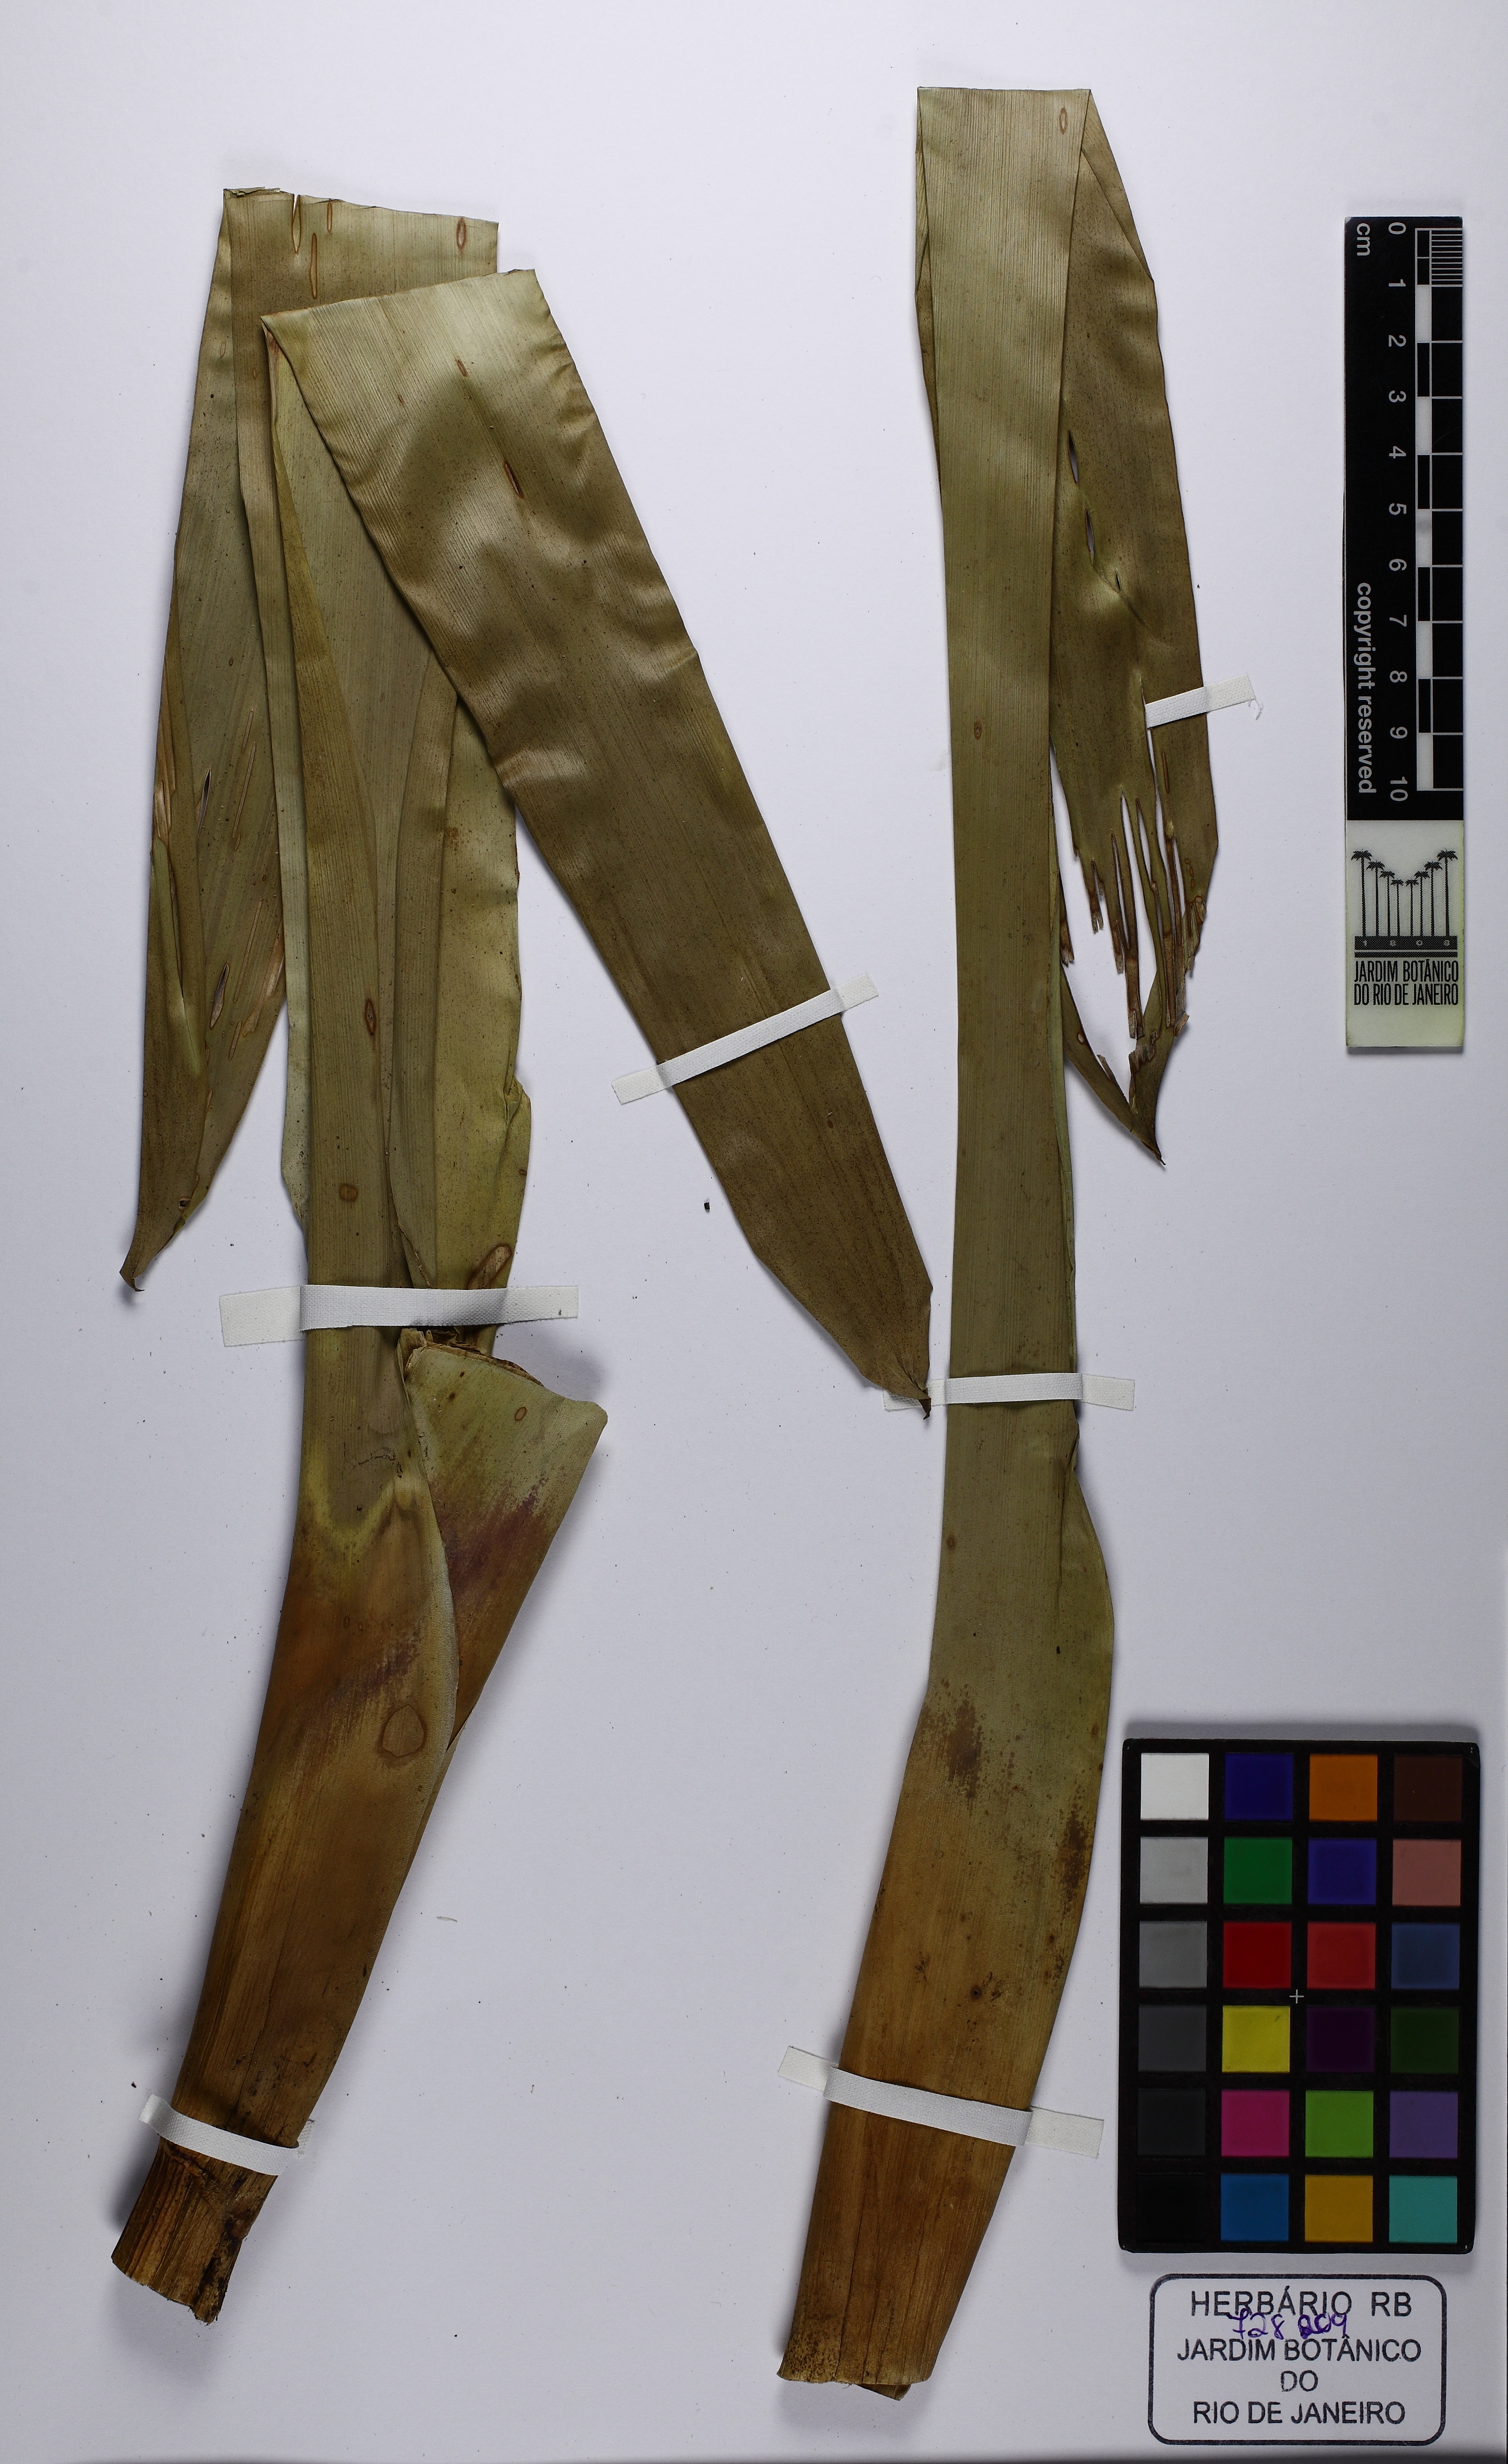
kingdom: Plantae
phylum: Tracheophyta
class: Liliopsida
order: Poales
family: Bromeliaceae
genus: Vriesea
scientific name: Vriesea philippocoburgi
